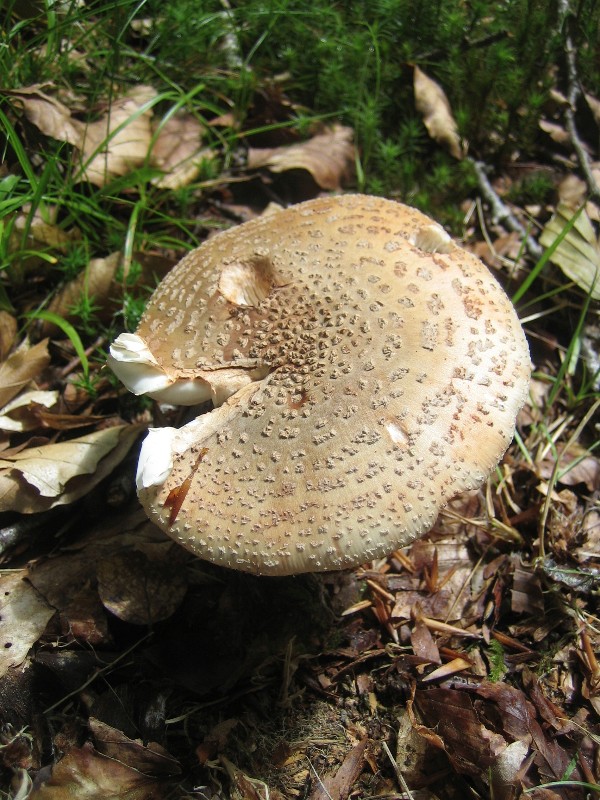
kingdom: Fungi
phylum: Basidiomycota
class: Agaricomycetes
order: Agaricales
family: Amanitaceae
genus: Amanita
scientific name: Amanita rubescens
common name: rødmende fluesvamp
